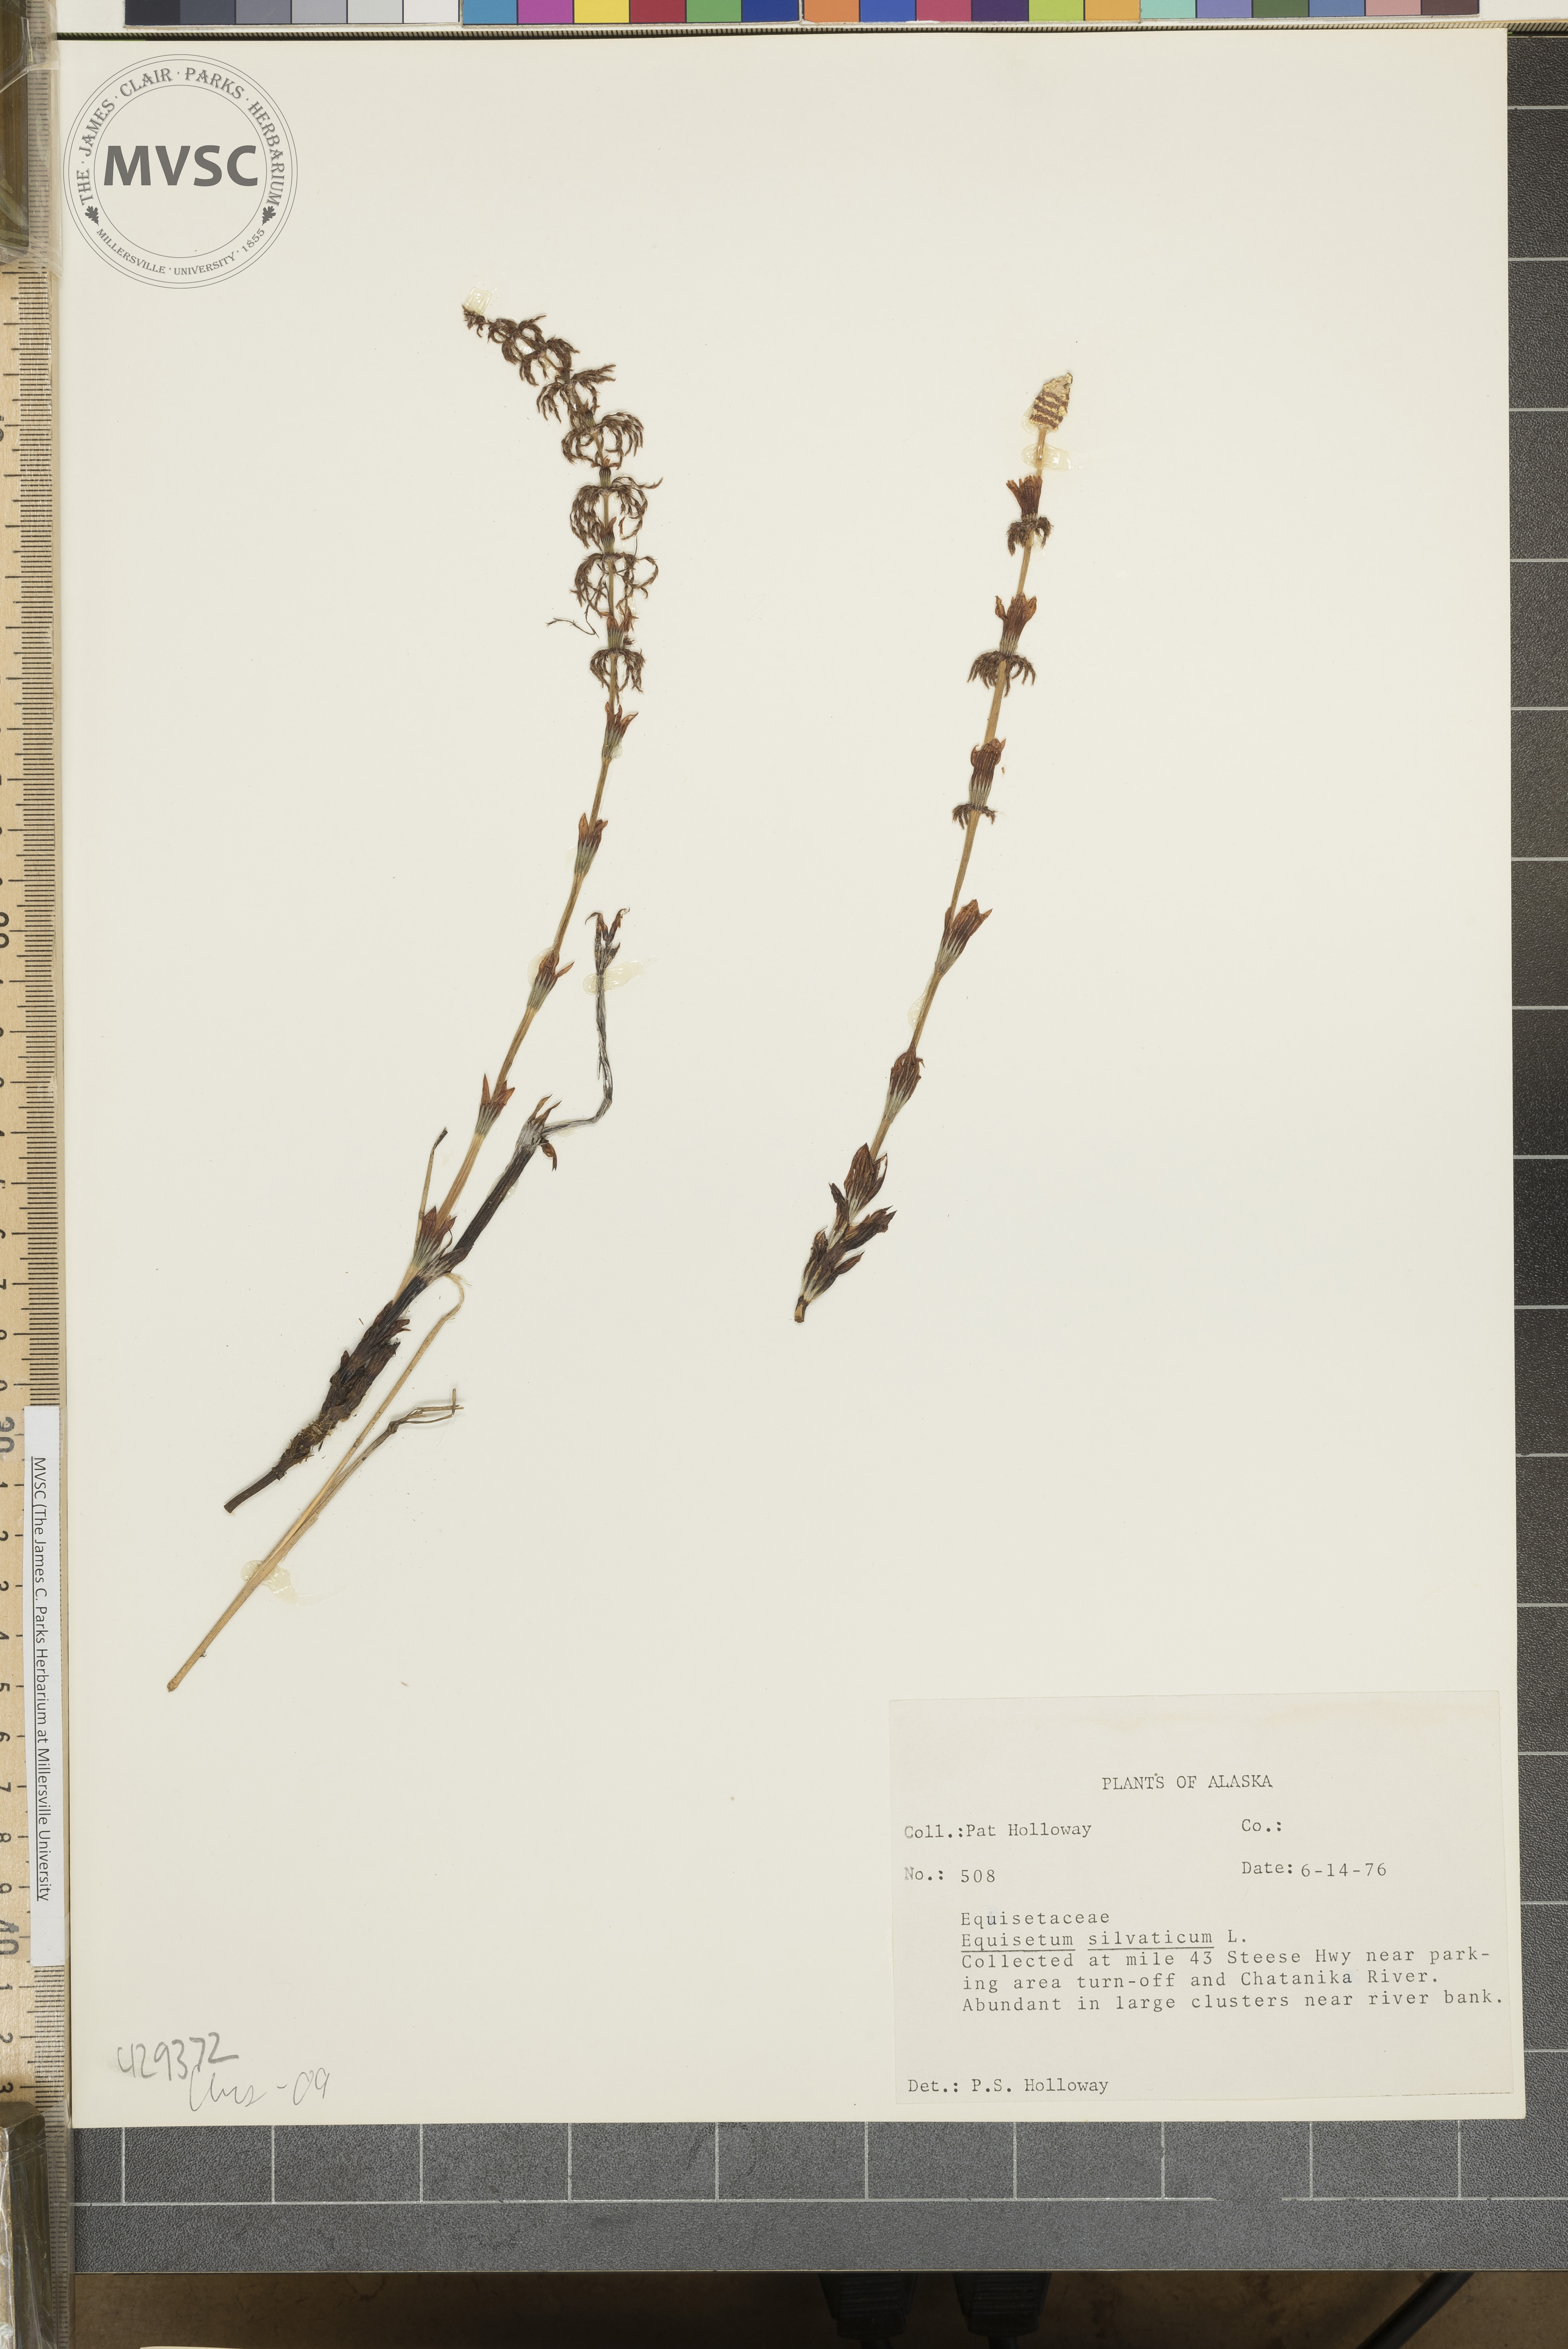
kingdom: Plantae
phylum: Tracheophyta
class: Polypodiopsida
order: Equisetales
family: Equisetaceae
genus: Equisetum
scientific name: Equisetum sylvaticum
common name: Wood horsetail
